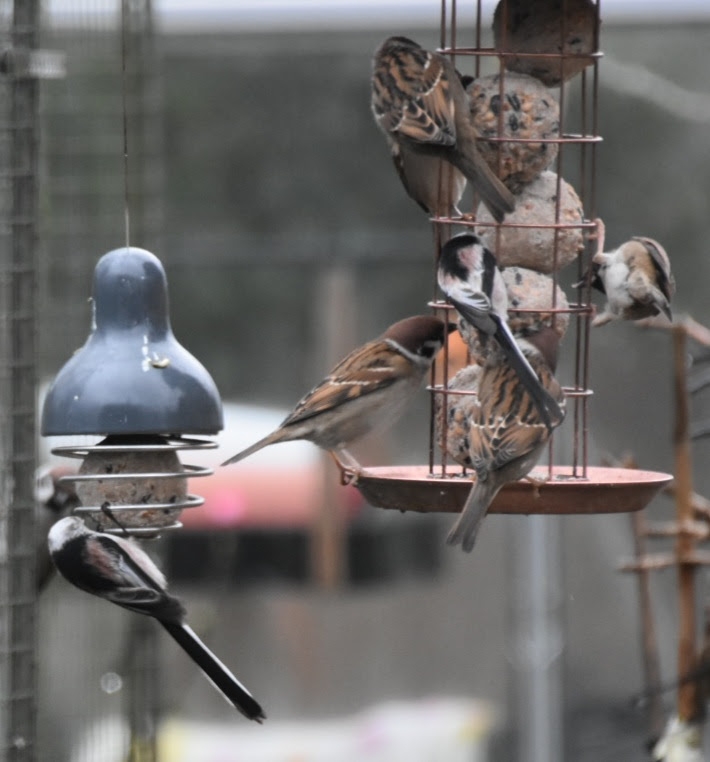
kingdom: Animalia
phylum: Chordata
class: Aves
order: Passeriformes
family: Aegithalidae
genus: Aegithalos
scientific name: Aegithalos caudatus
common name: Halemejse
